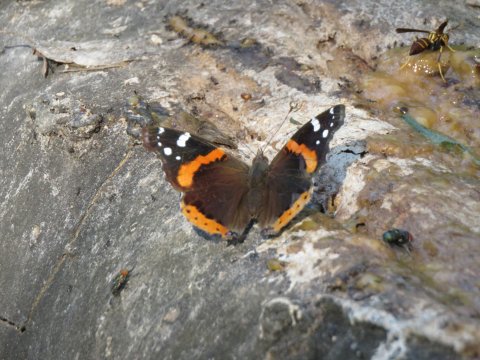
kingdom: Animalia
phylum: Arthropoda
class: Insecta
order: Lepidoptera
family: Nymphalidae
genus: Vanessa
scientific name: Vanessa atalanta
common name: Red Admiral
